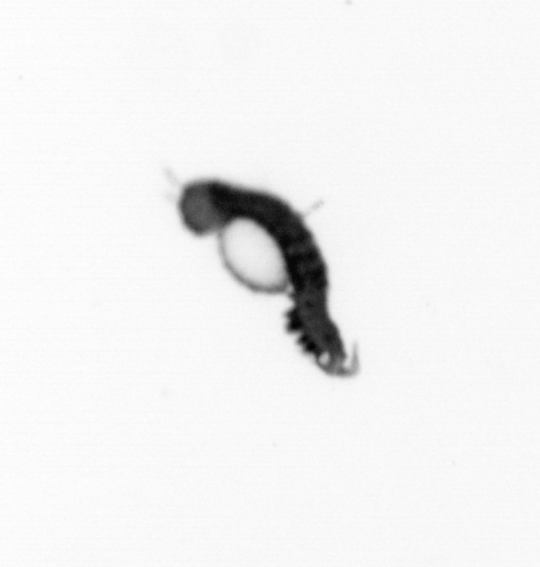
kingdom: Animalia
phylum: Annelida
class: Polychaeta
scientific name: Polychaeta
